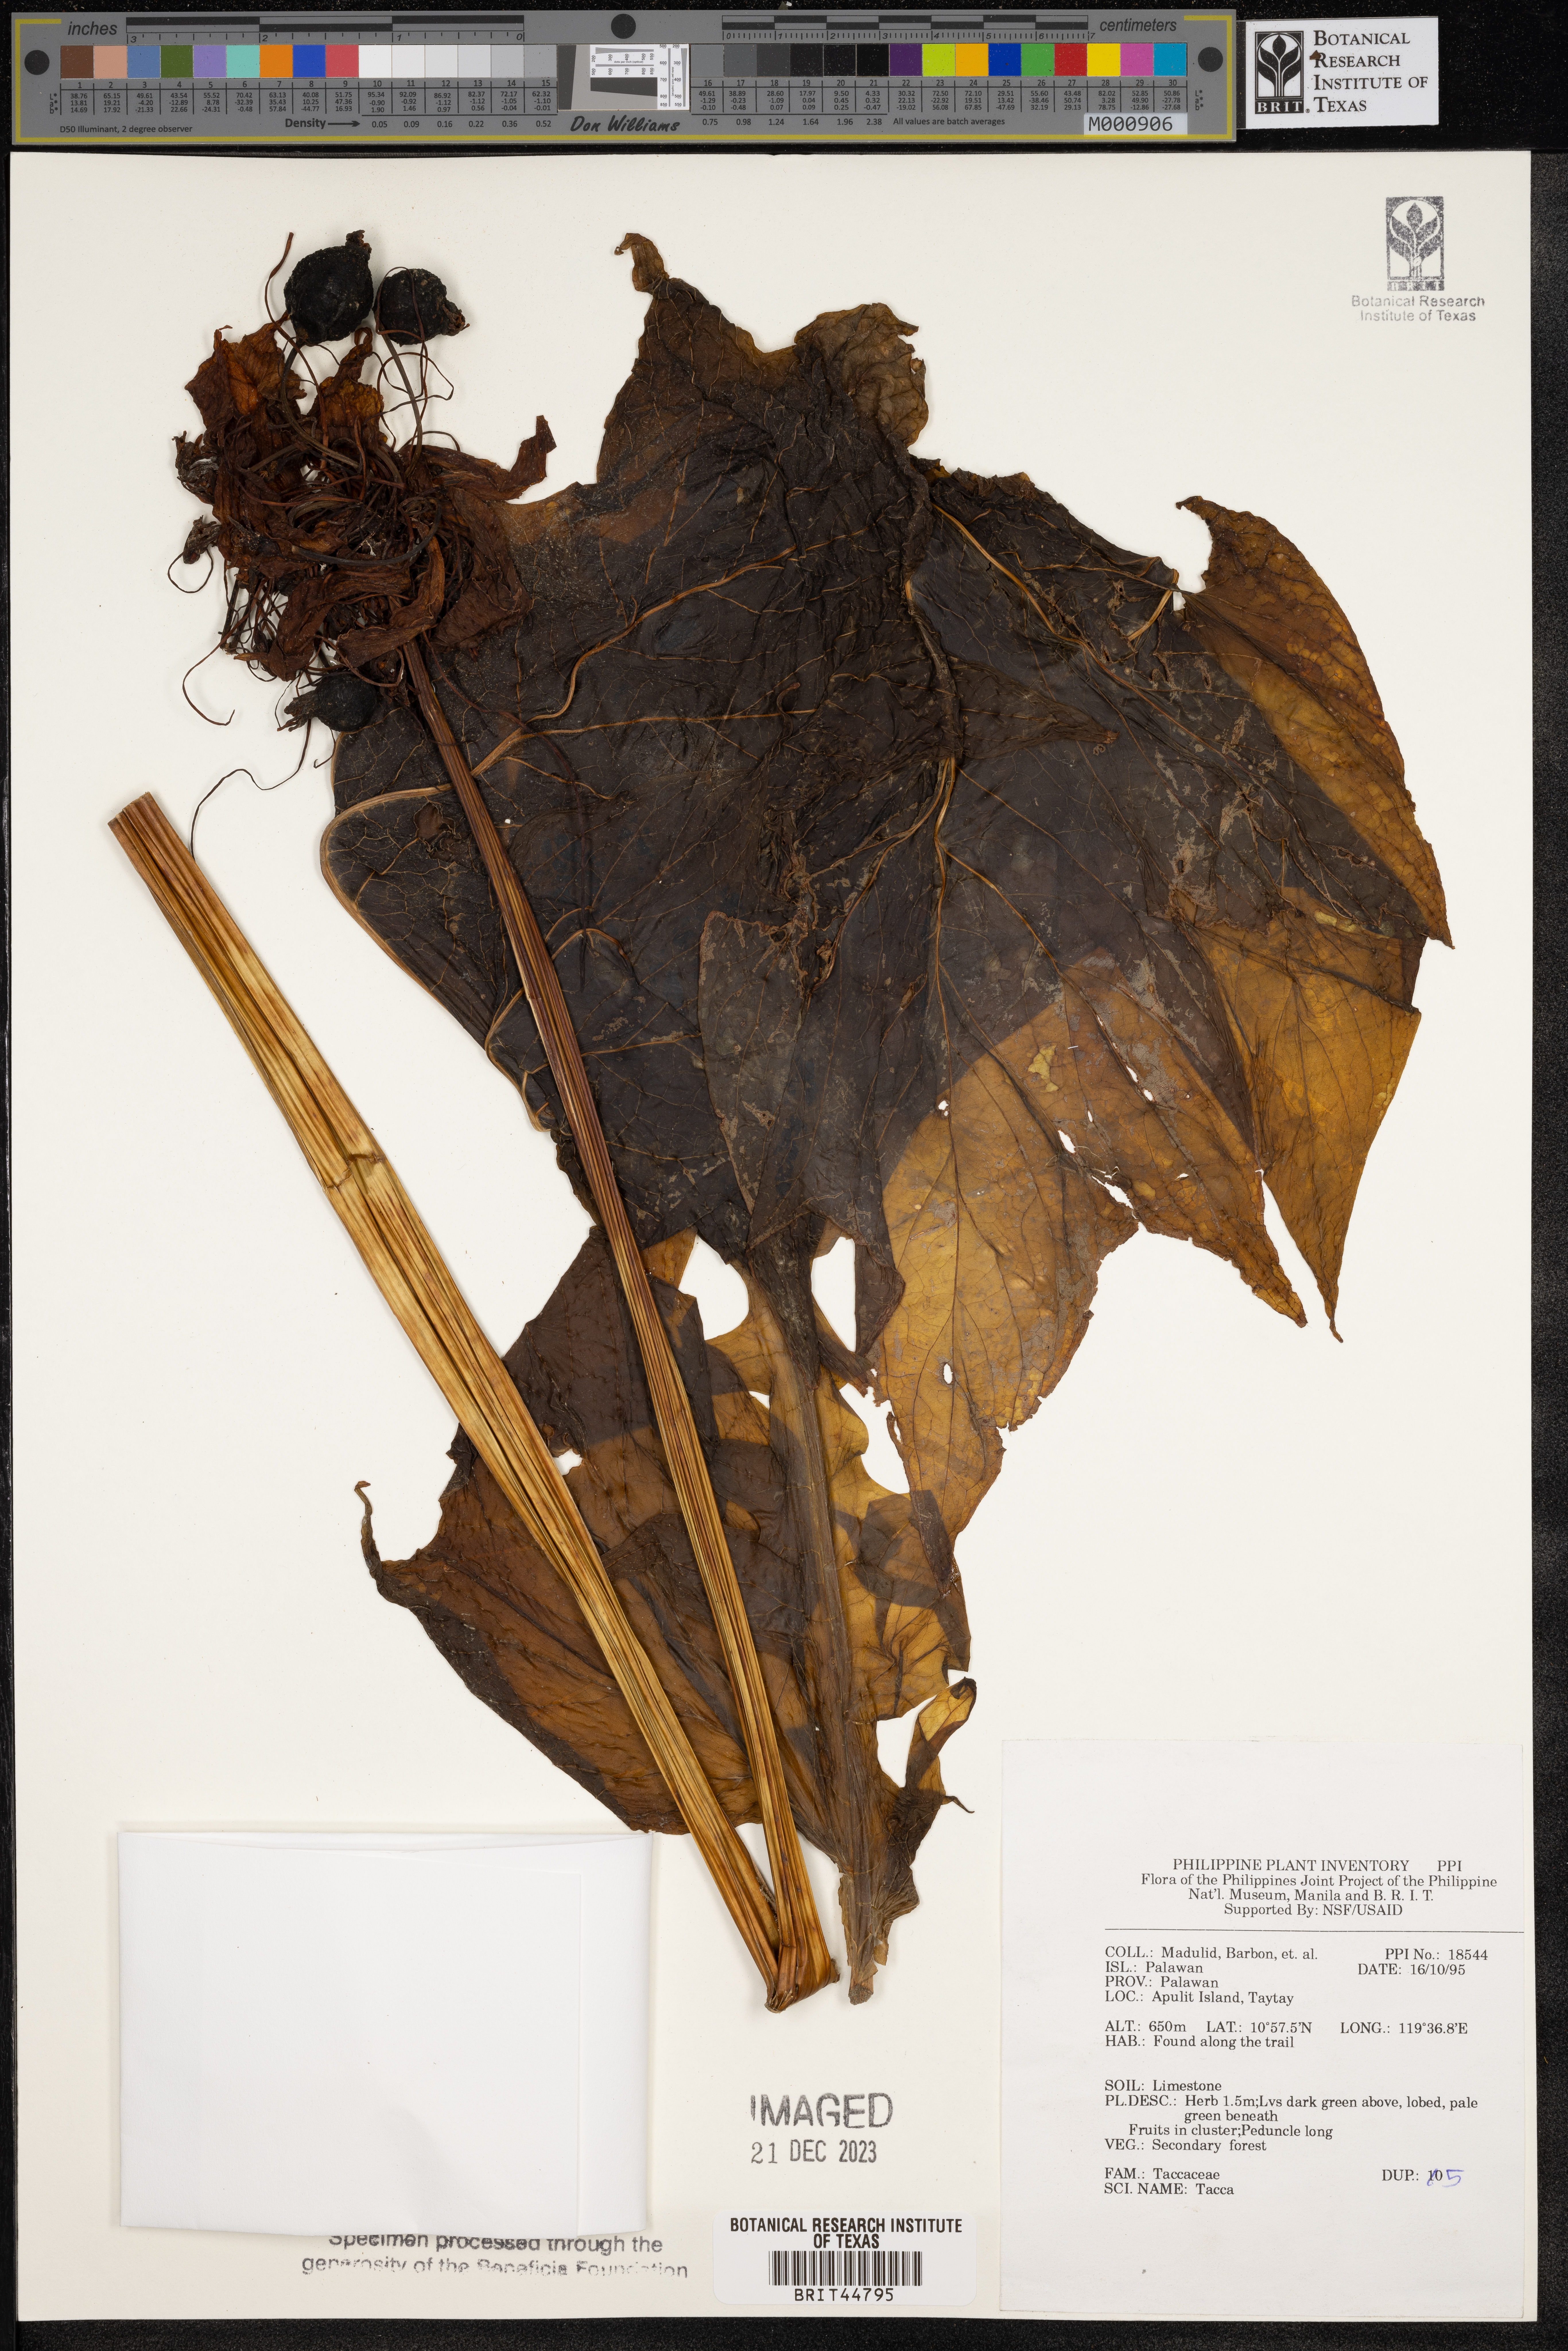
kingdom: Plantae
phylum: Tracheophyta
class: Liliopsida
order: Dioscoreales
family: Dioscoreaceae
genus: Tacca
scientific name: Tacca
